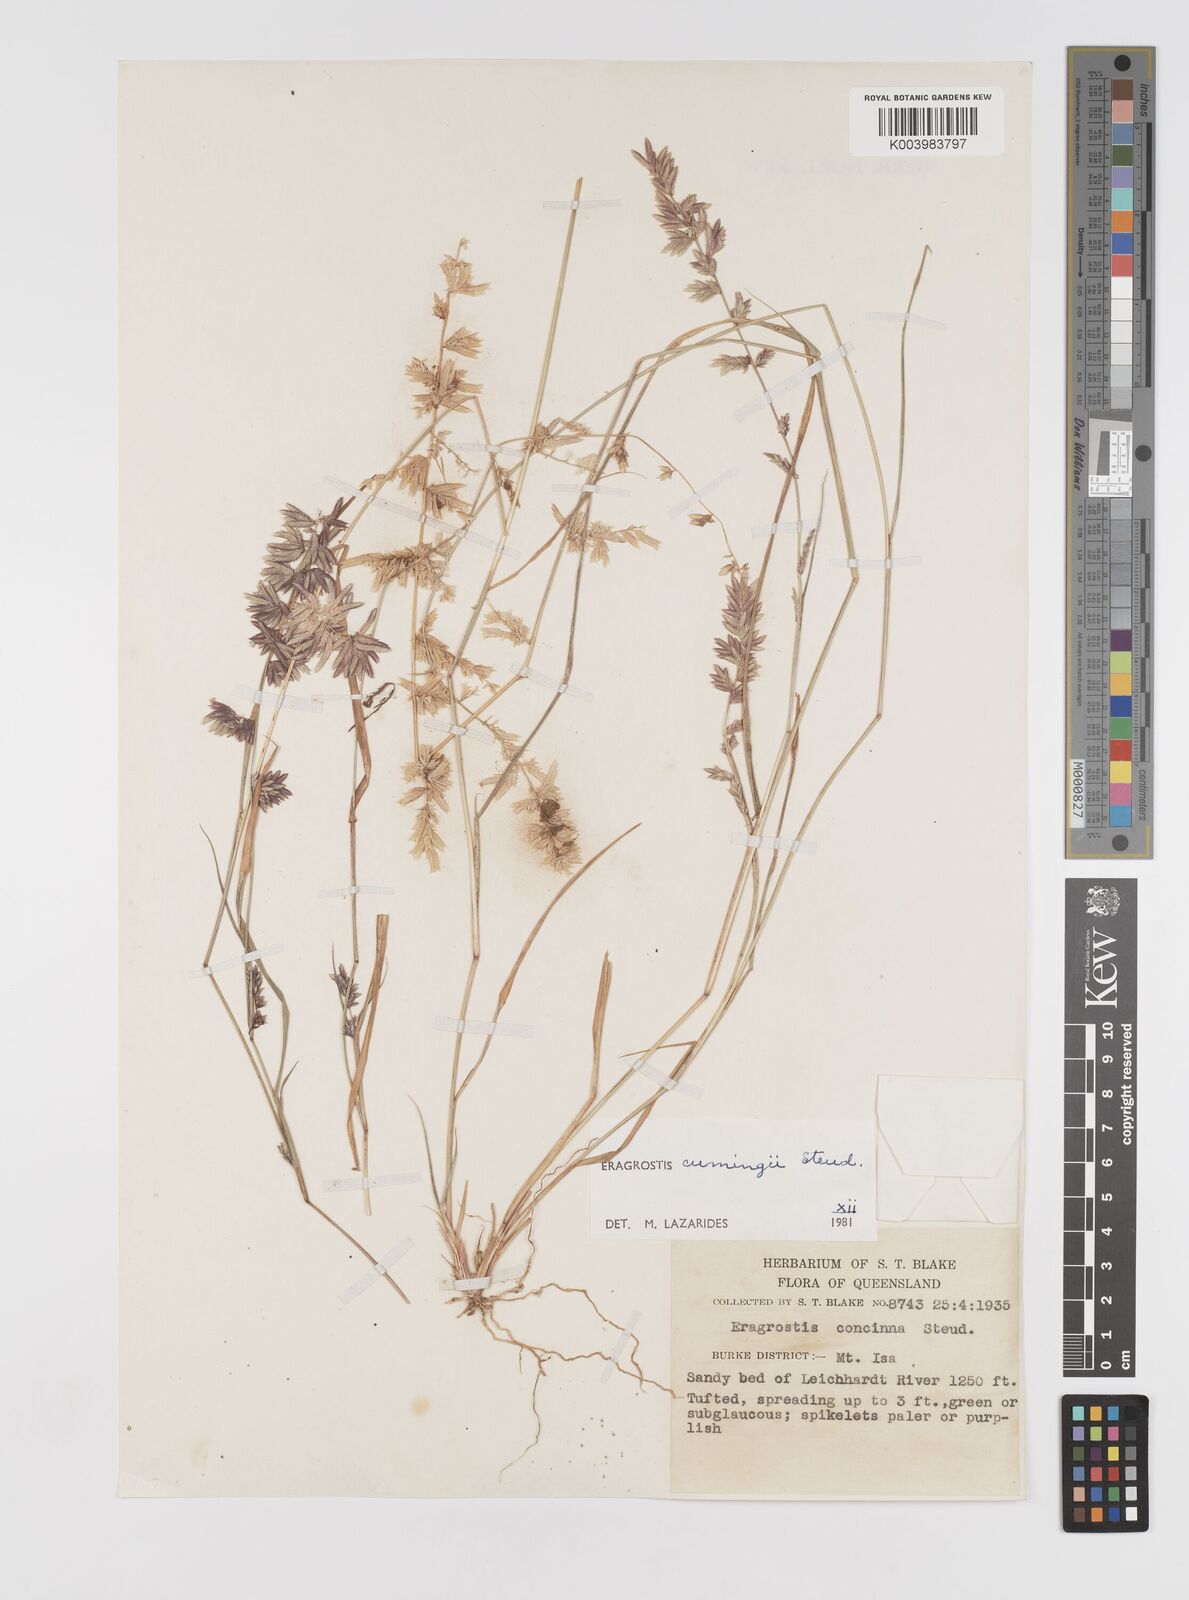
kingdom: Plantae
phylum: Tracheophyta
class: Liliopsida
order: Poales
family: Poaceae
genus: Eragrostis
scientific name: Eragrostis cumingii
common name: Cuming's lovegrass
